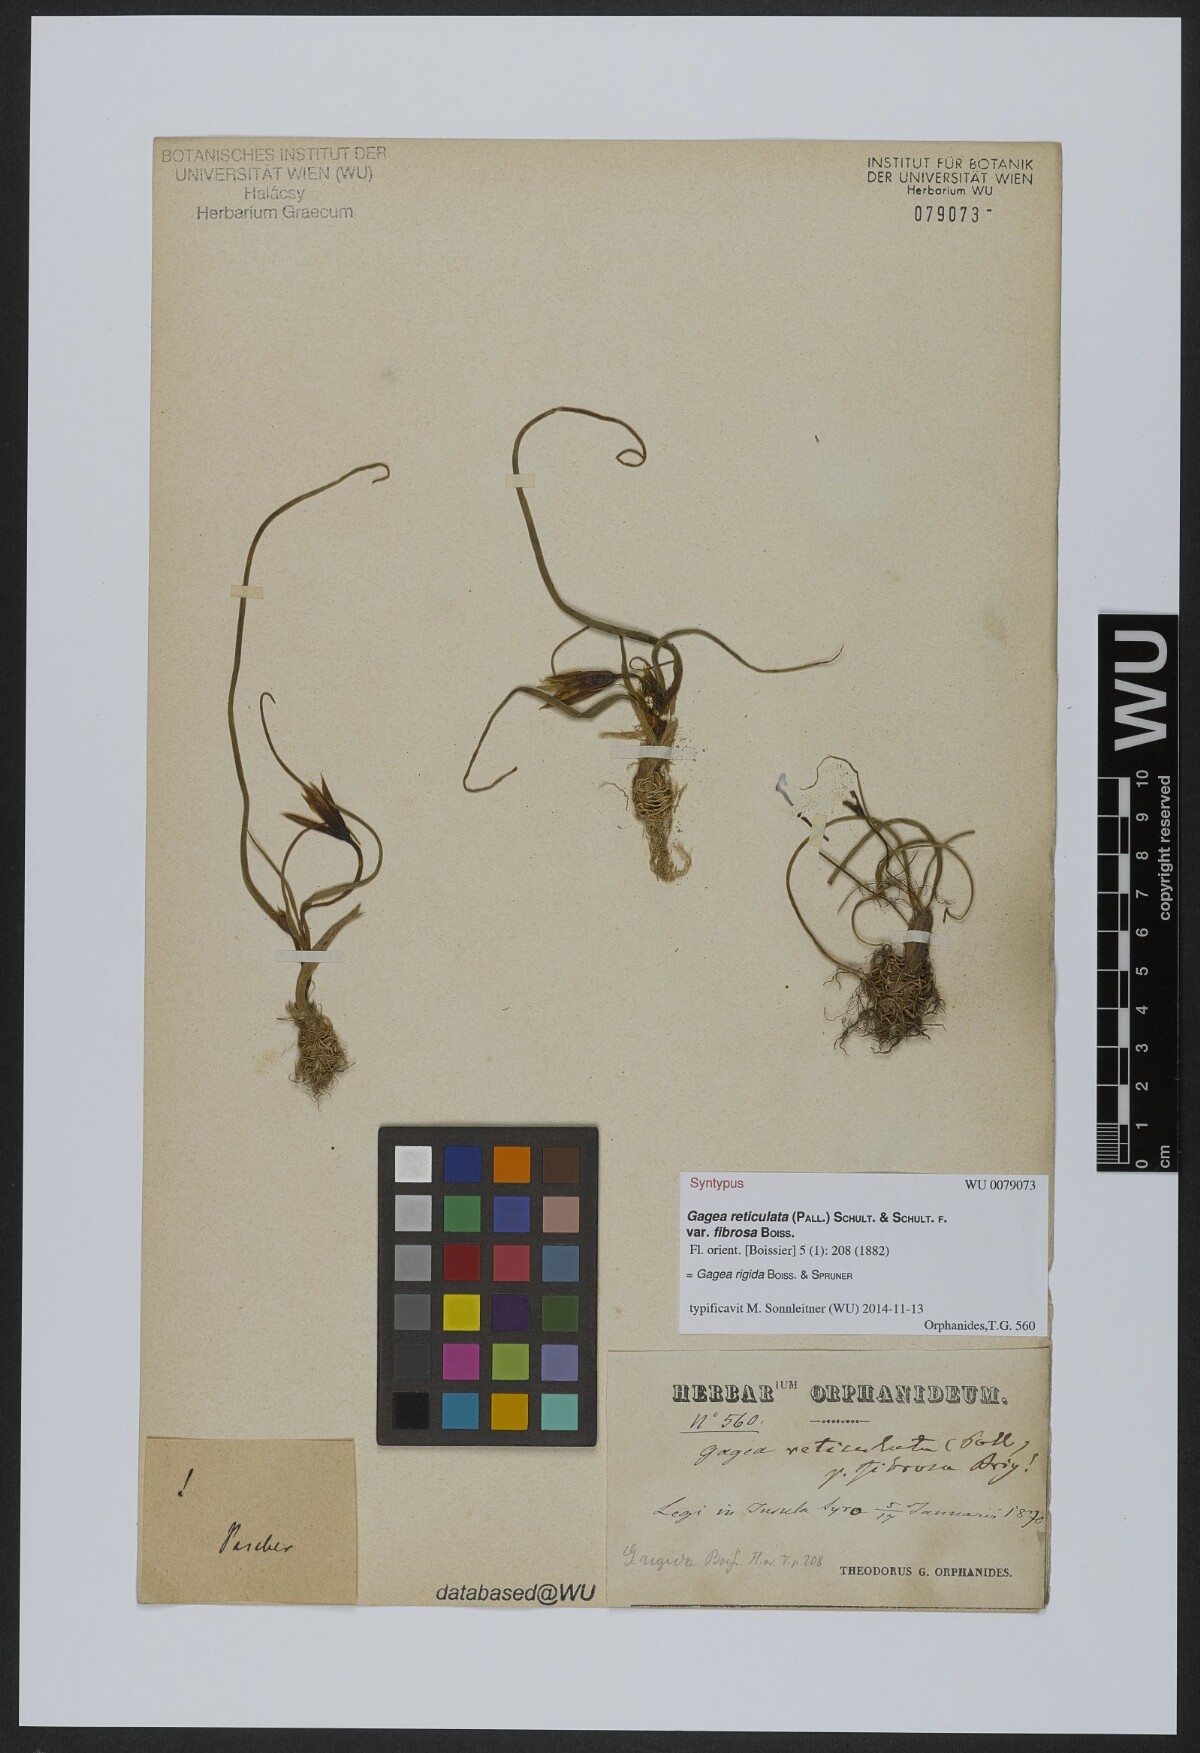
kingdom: Plantae
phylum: Tracheophyta
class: Liliopsida
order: Liliales
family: Liliaceae
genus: Gagea
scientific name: Gagea rigida
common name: Stiff gagea
